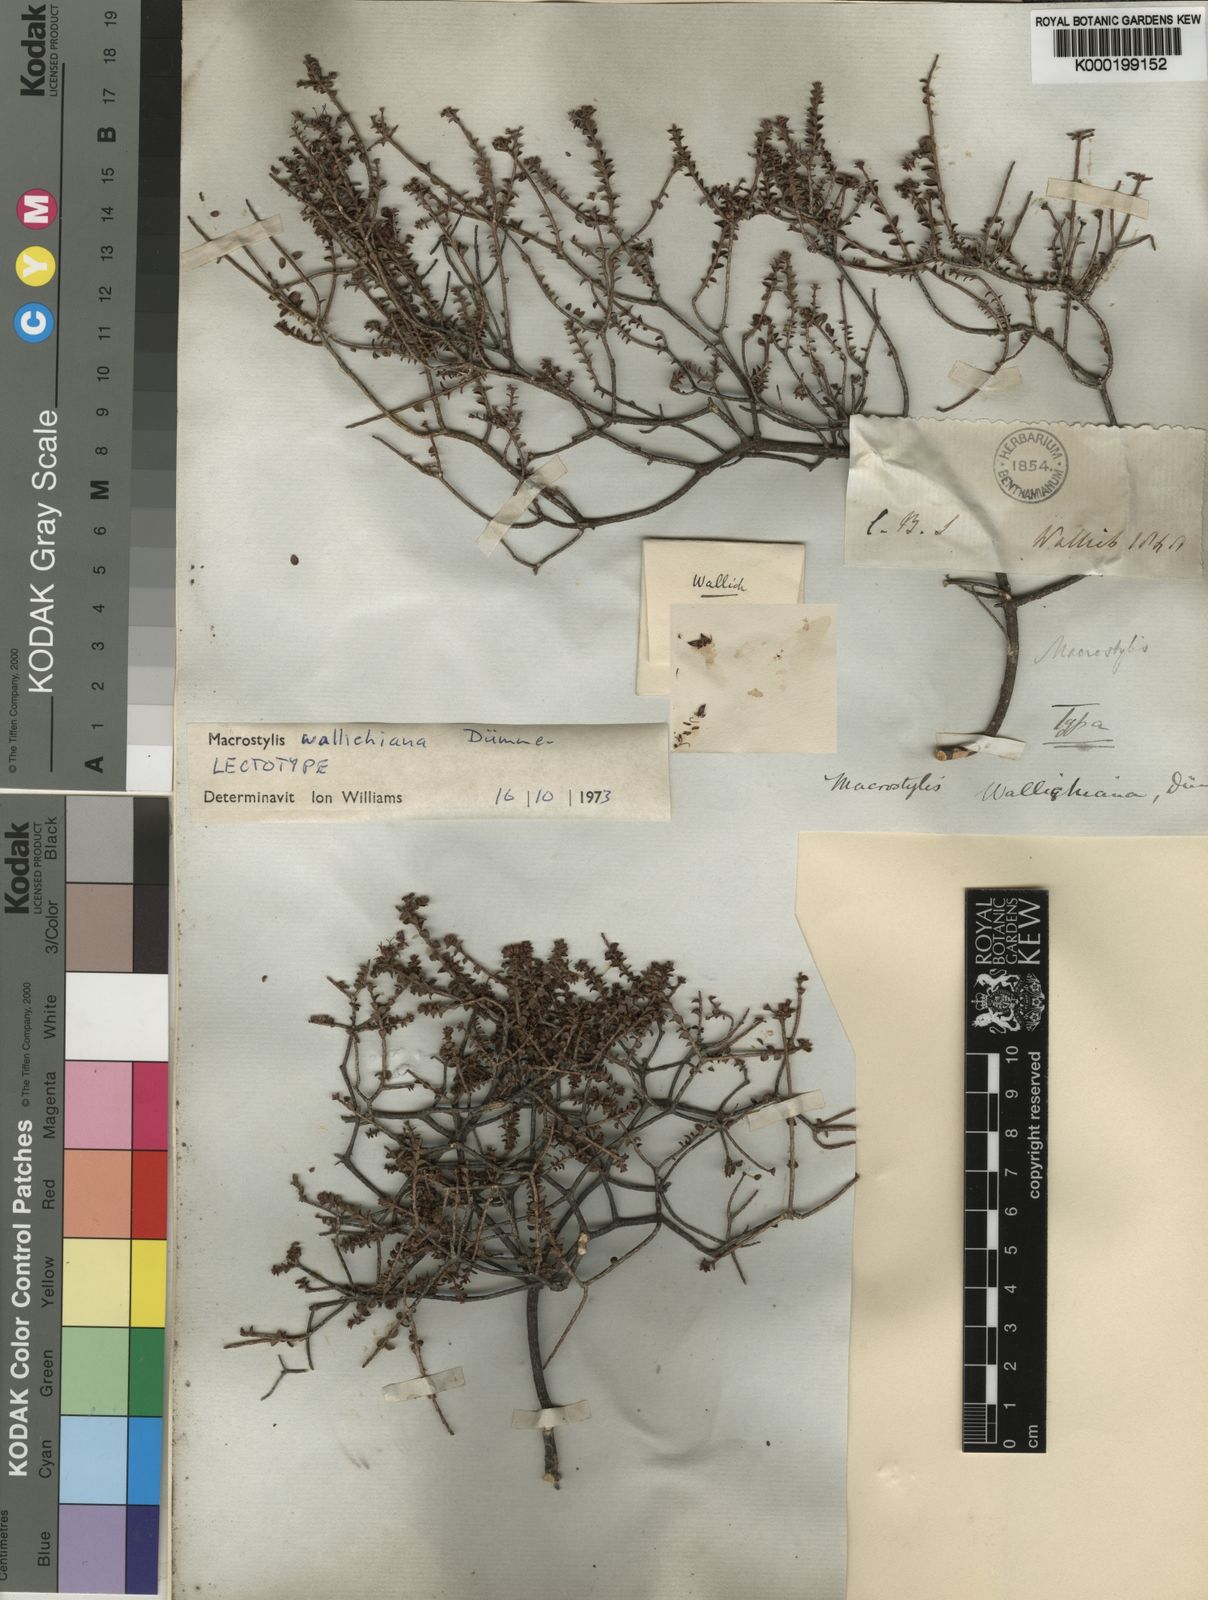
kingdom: Plantae
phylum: Tracheophyta
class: Magnoliopsida
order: Sapindales
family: Rutaceae
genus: Macrostylis
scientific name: Macrostylis crassifolia
